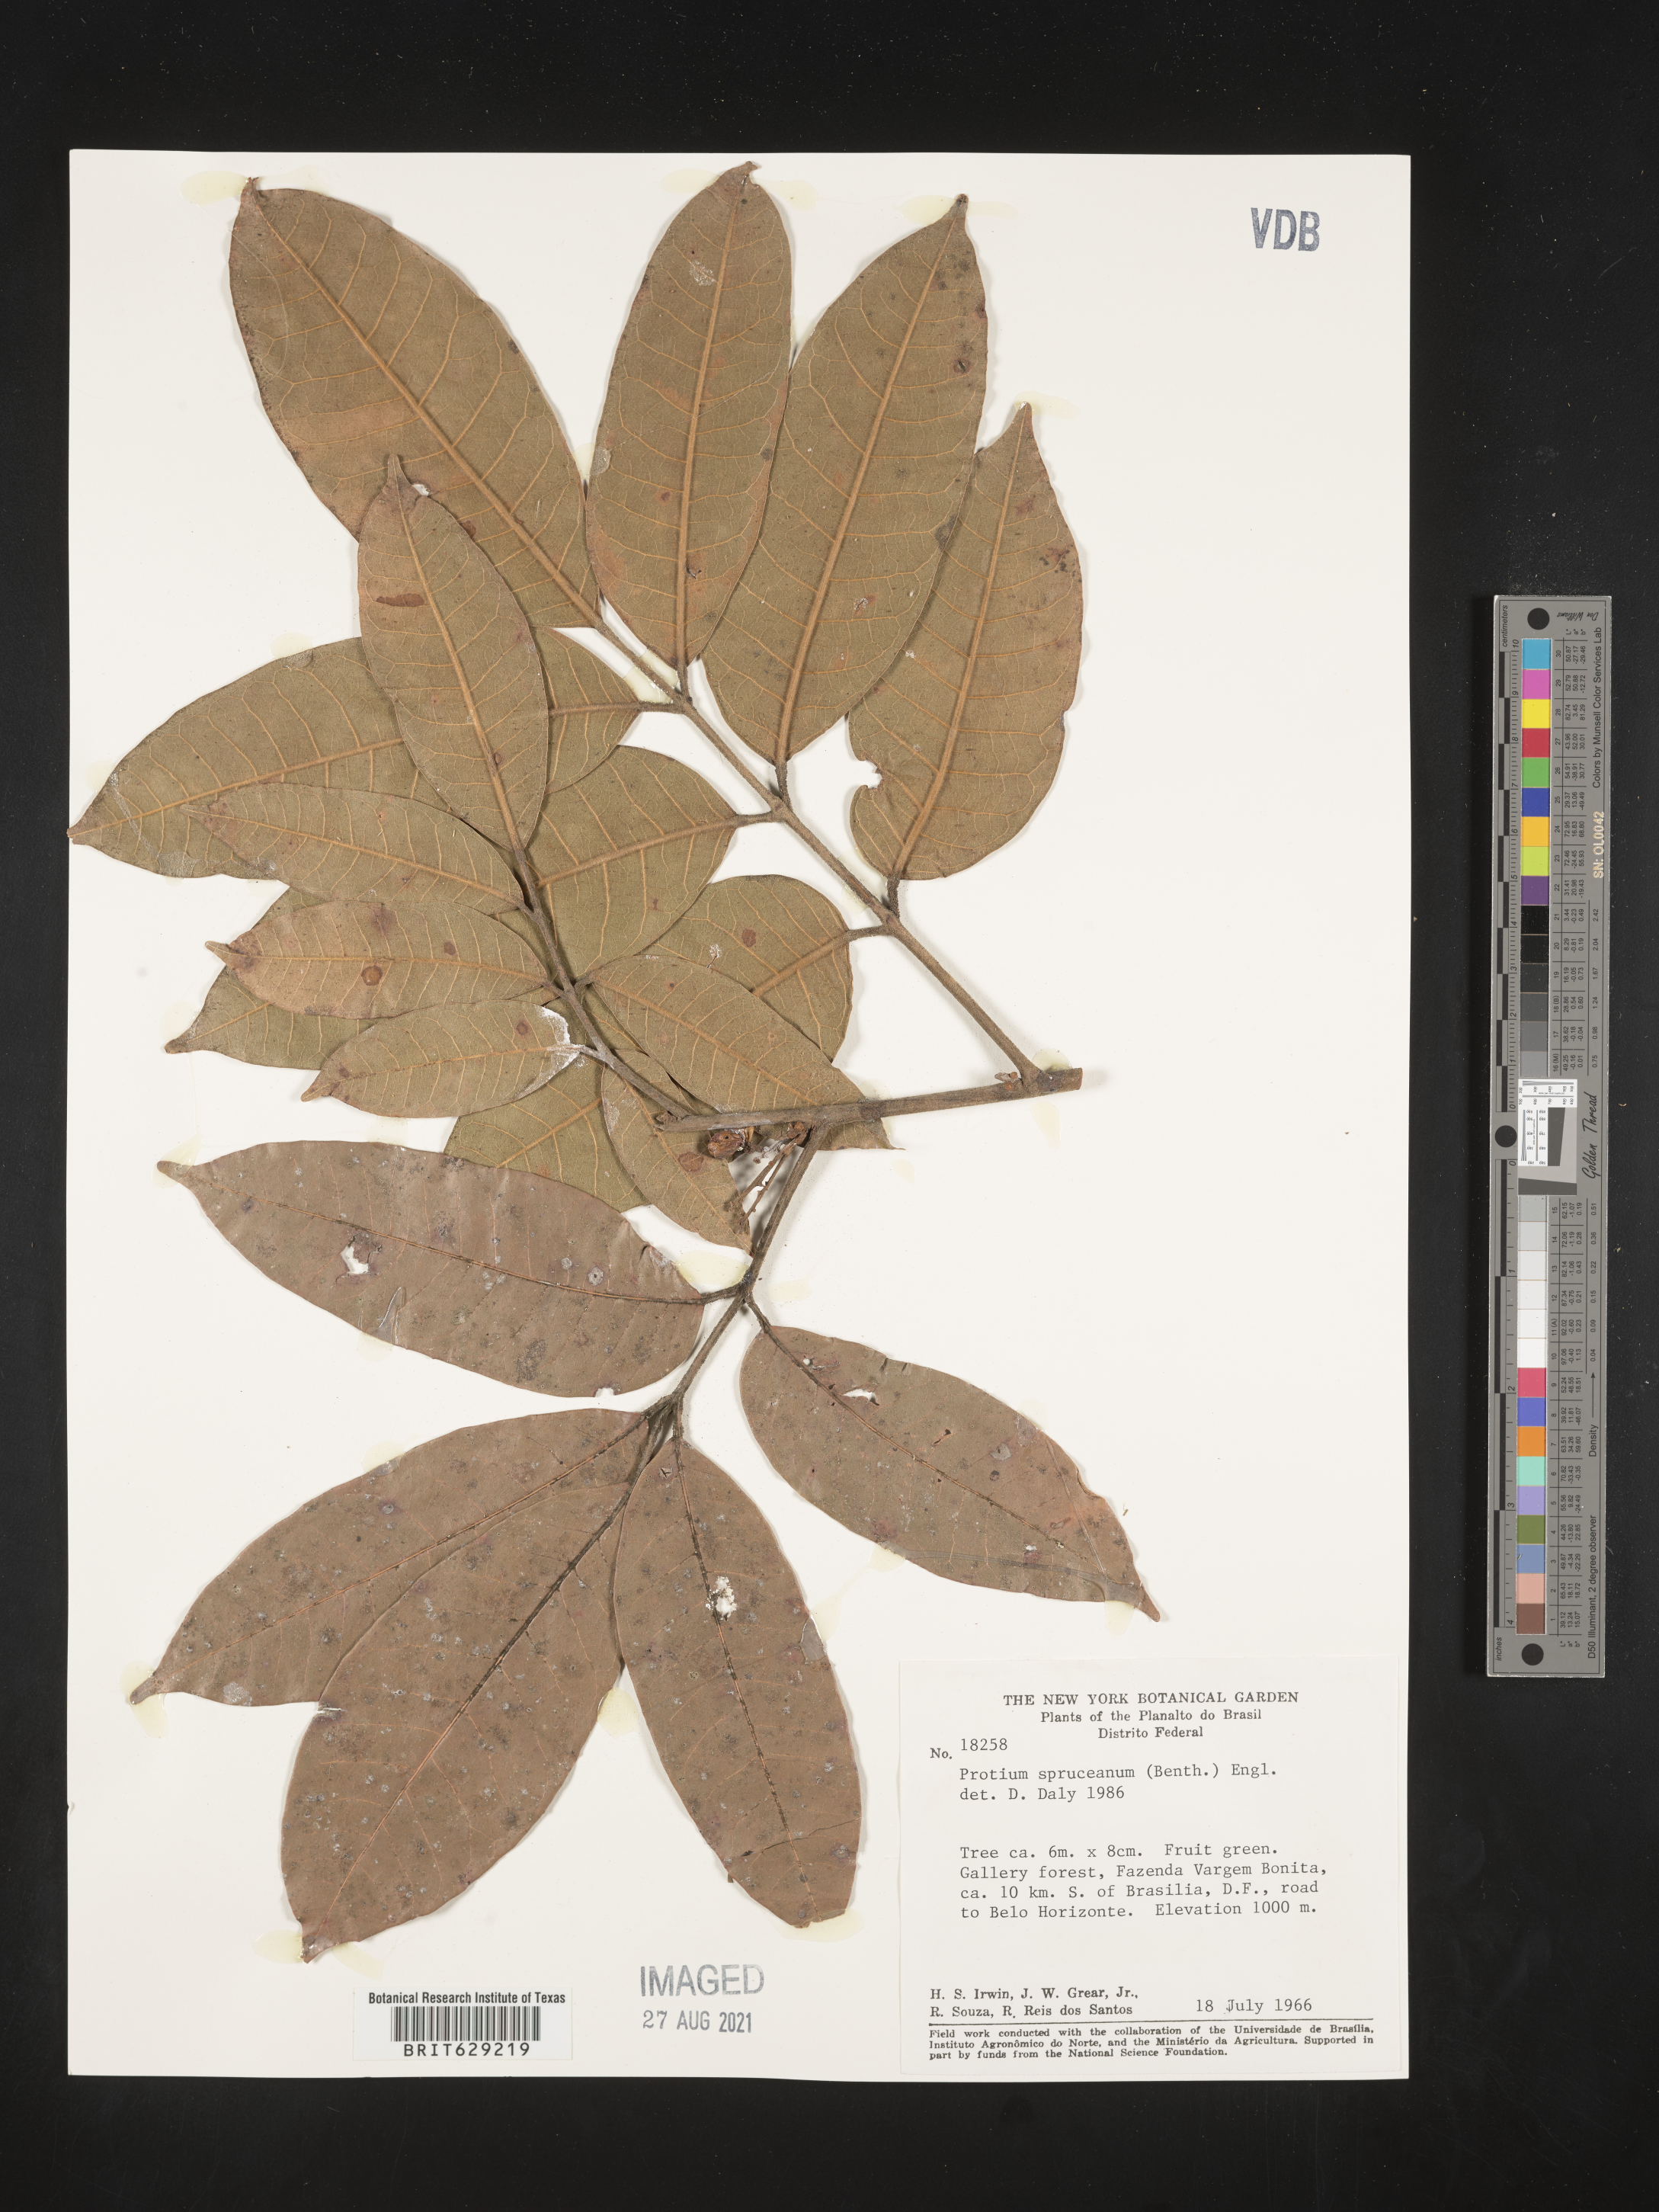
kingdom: Plantae
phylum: Tracheophyta
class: Magnoliopsida
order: Sapindales
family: Burseraceae
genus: Protium
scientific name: Protium spruceanum
